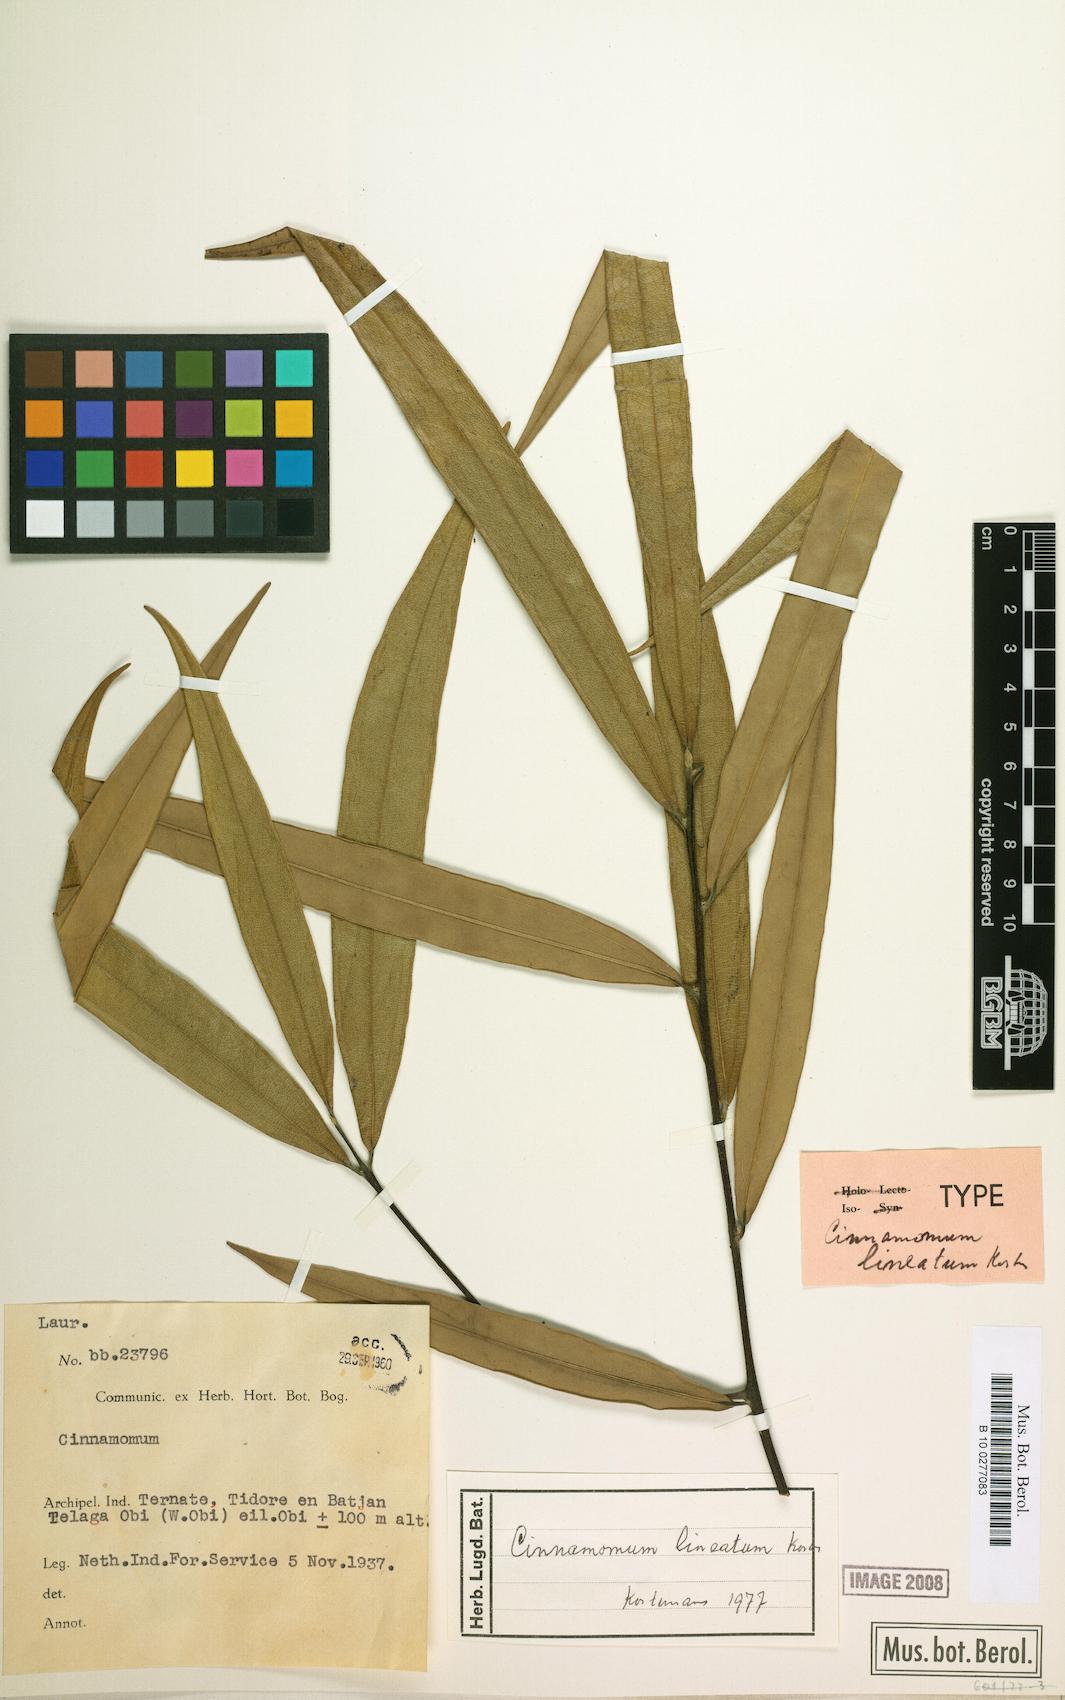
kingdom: Plantae
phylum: Tracheophyta
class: Magnoliopsida
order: Laurales
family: Lauraceae
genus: Cinnamomum
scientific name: Cinnamomum lineatum
